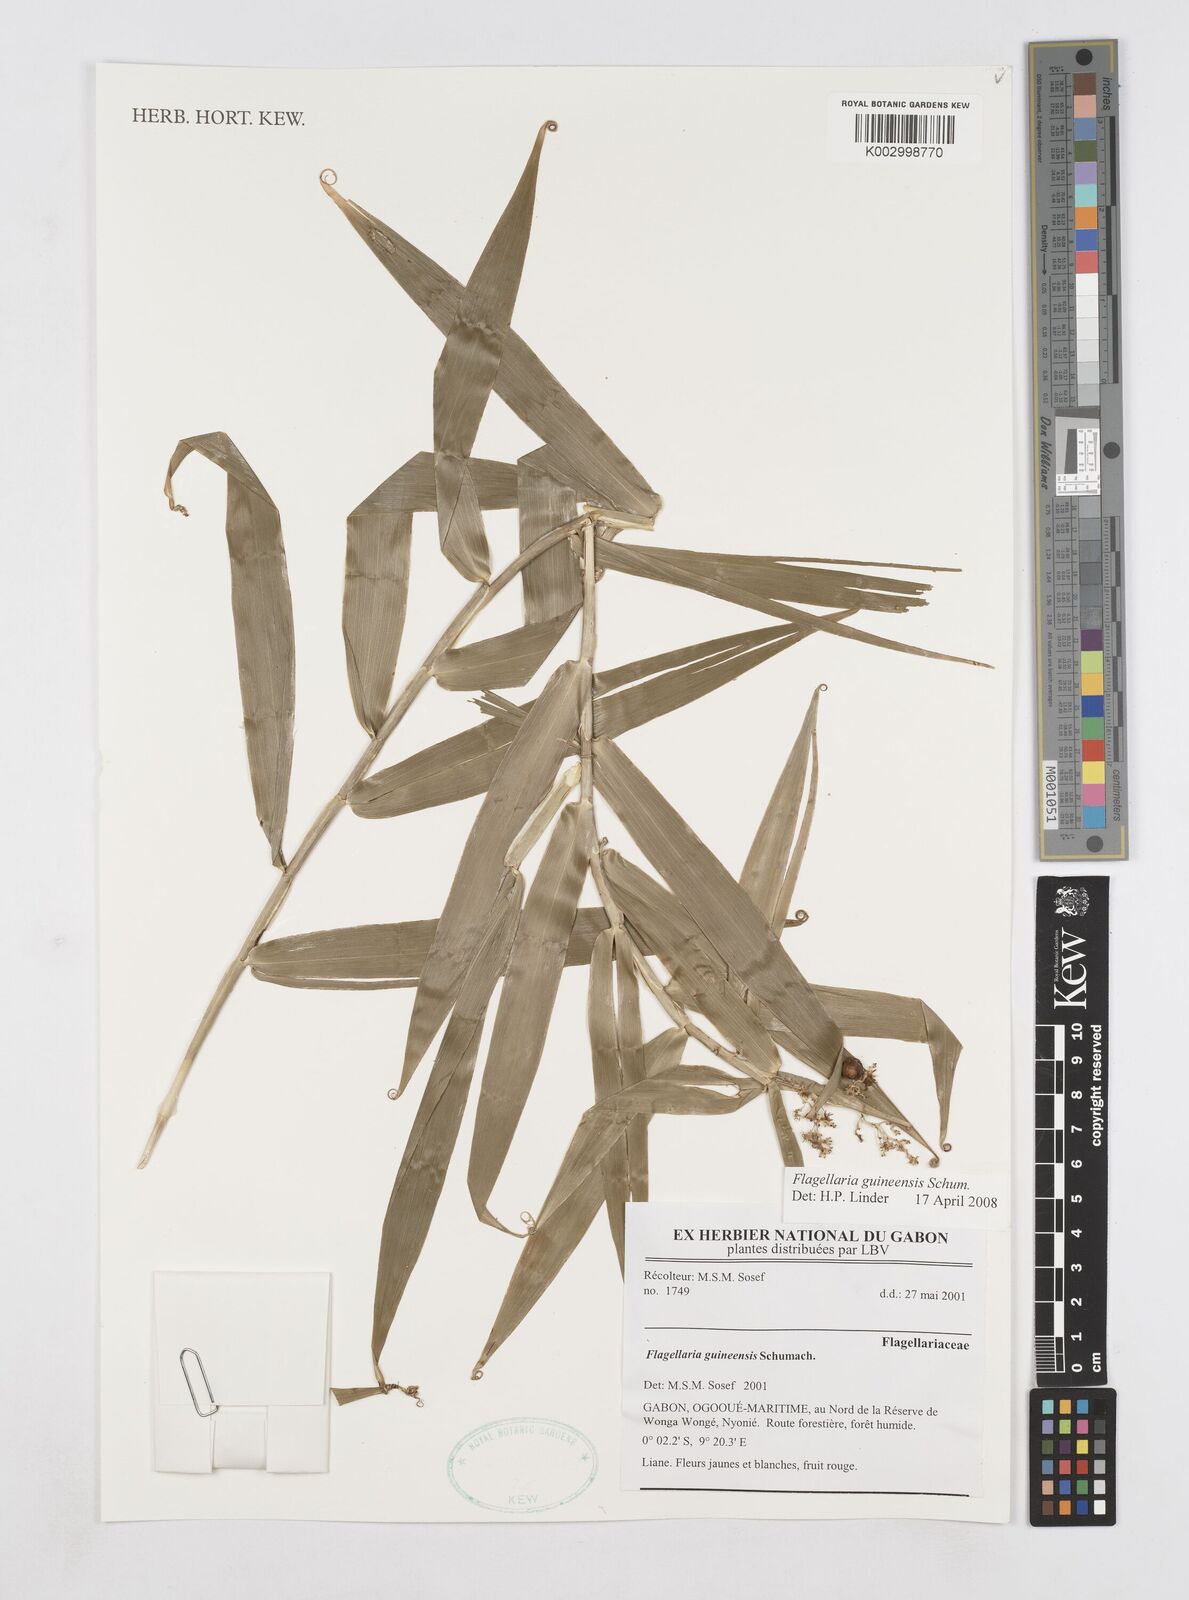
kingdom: Plantae
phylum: Tracheophyta
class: Liliopsida
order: Poales
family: Flagellariaceae
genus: Flagellaria
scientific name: Flagellaria guineensis
